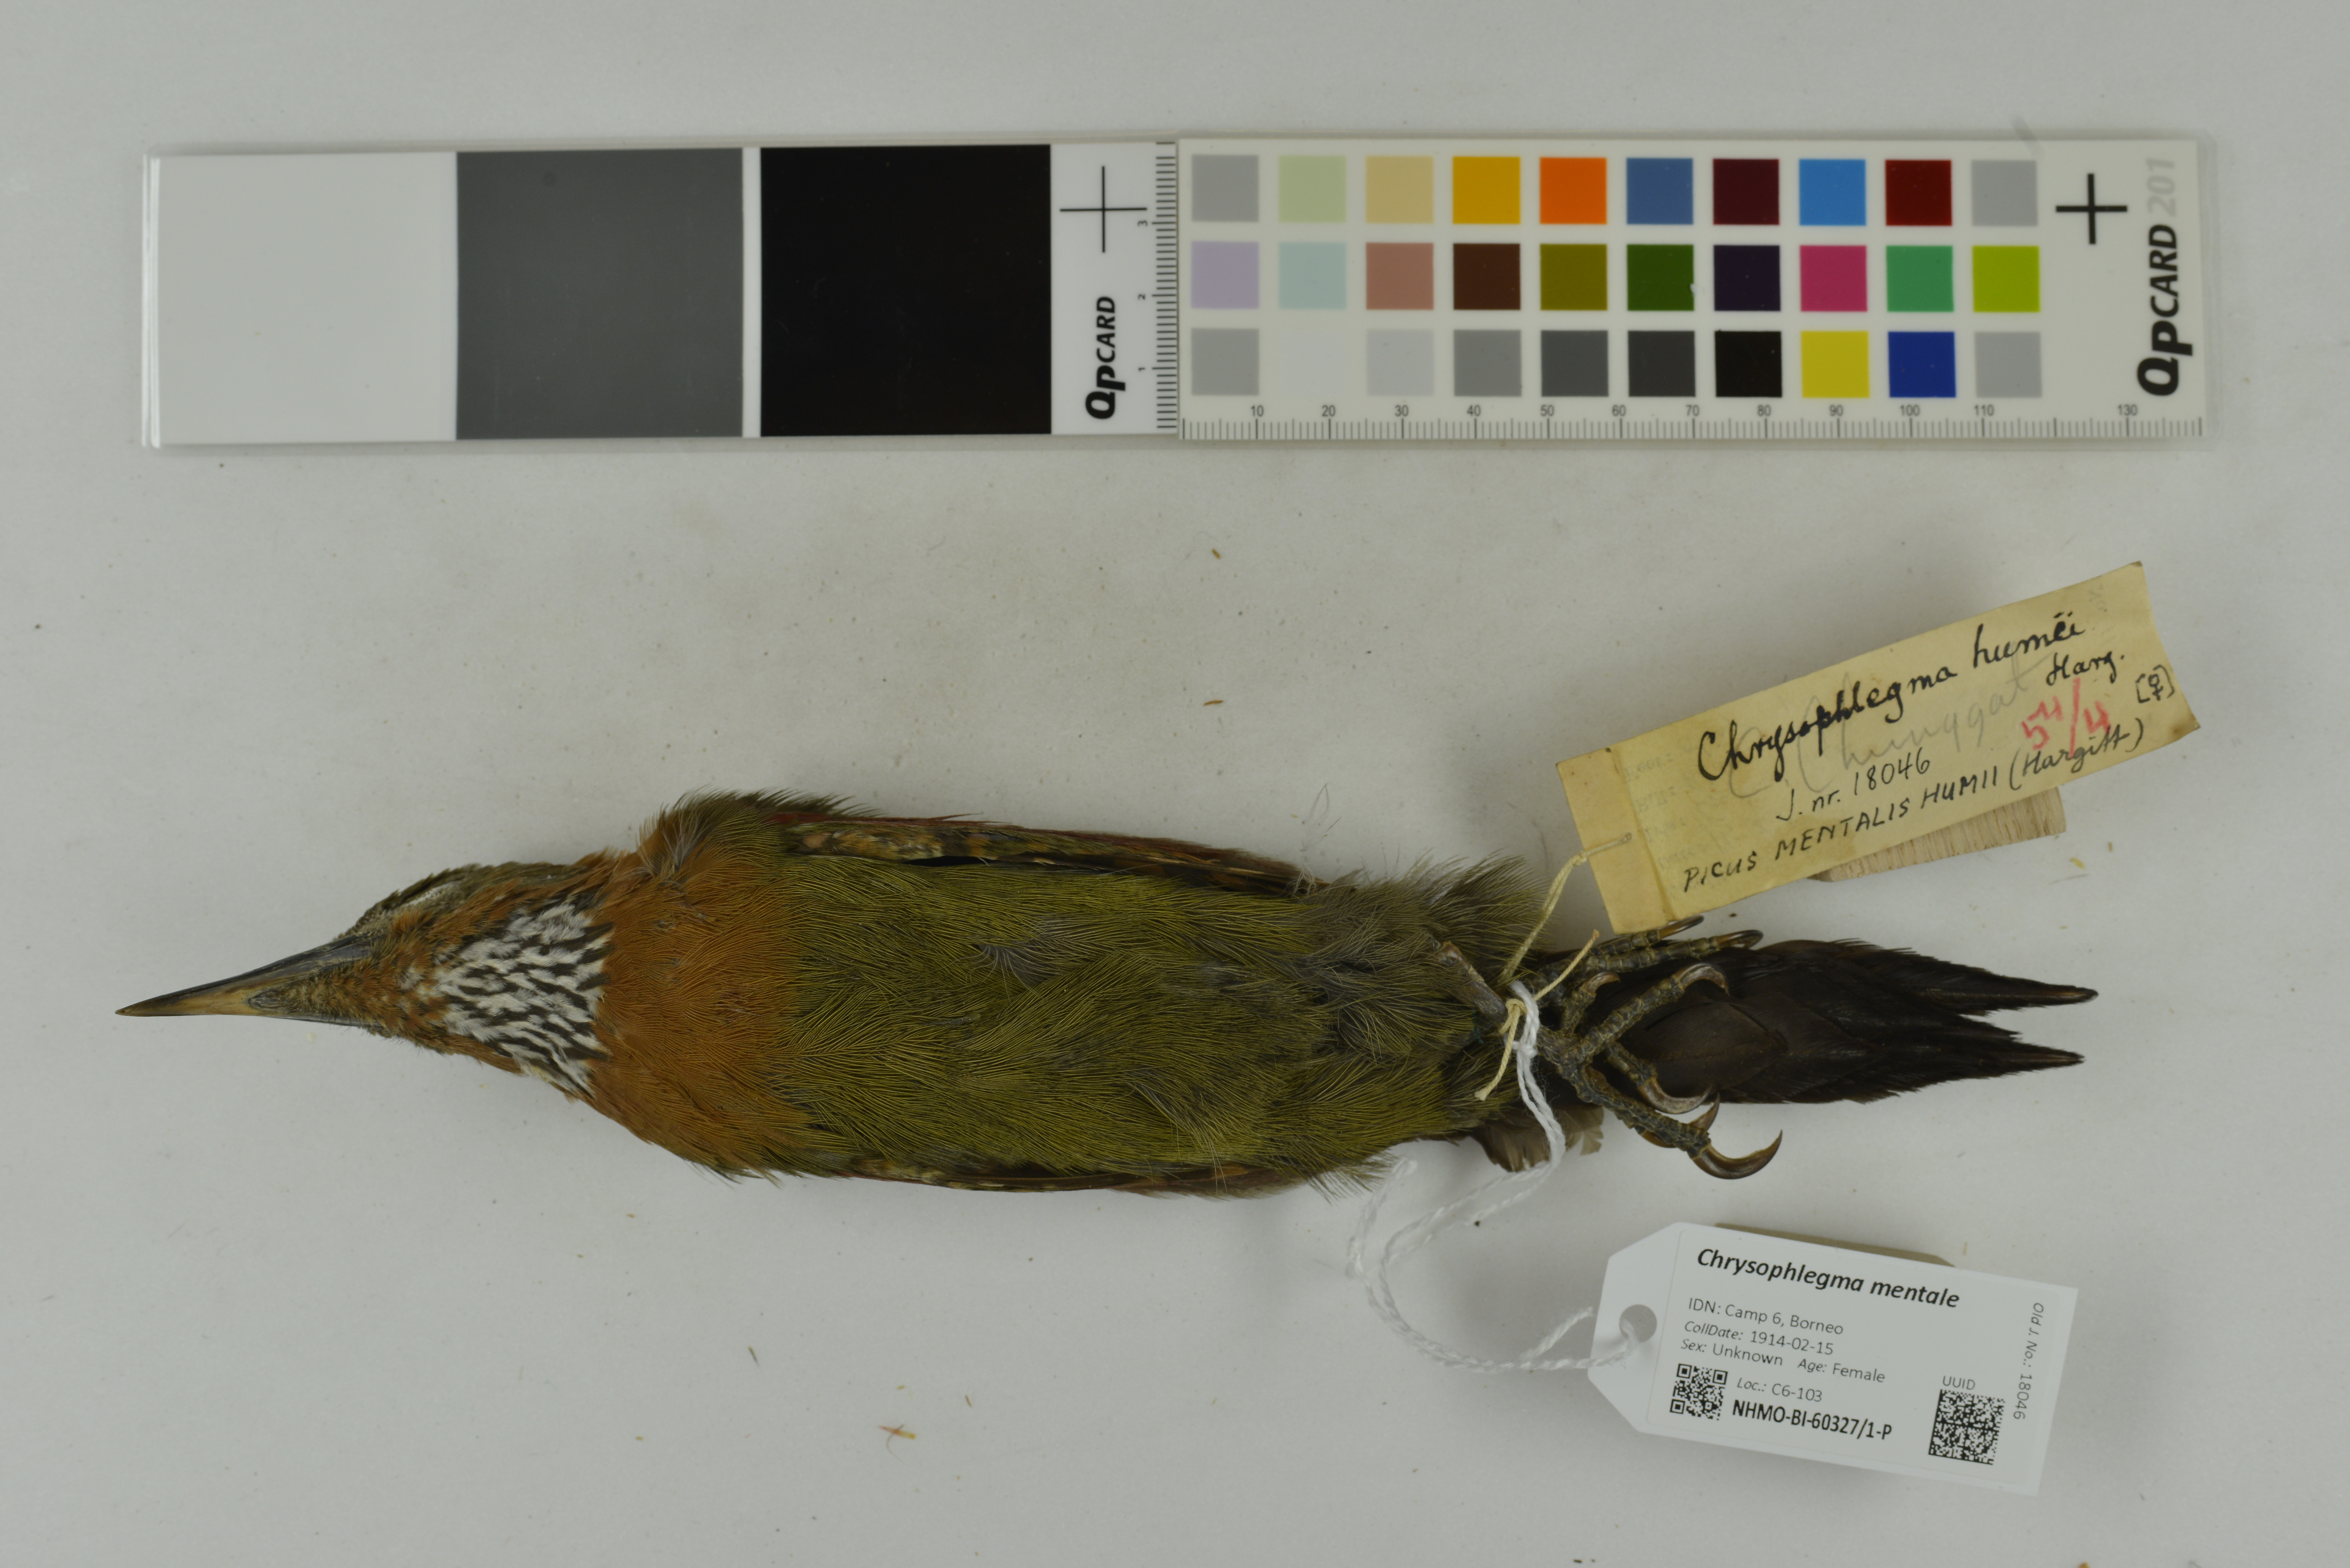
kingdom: Animalia
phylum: Chordata
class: Aves
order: Piciformes
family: Picidae
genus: Chrysophlegma
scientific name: Chrysophlegma mentale
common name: Checker-throated woodpecker
